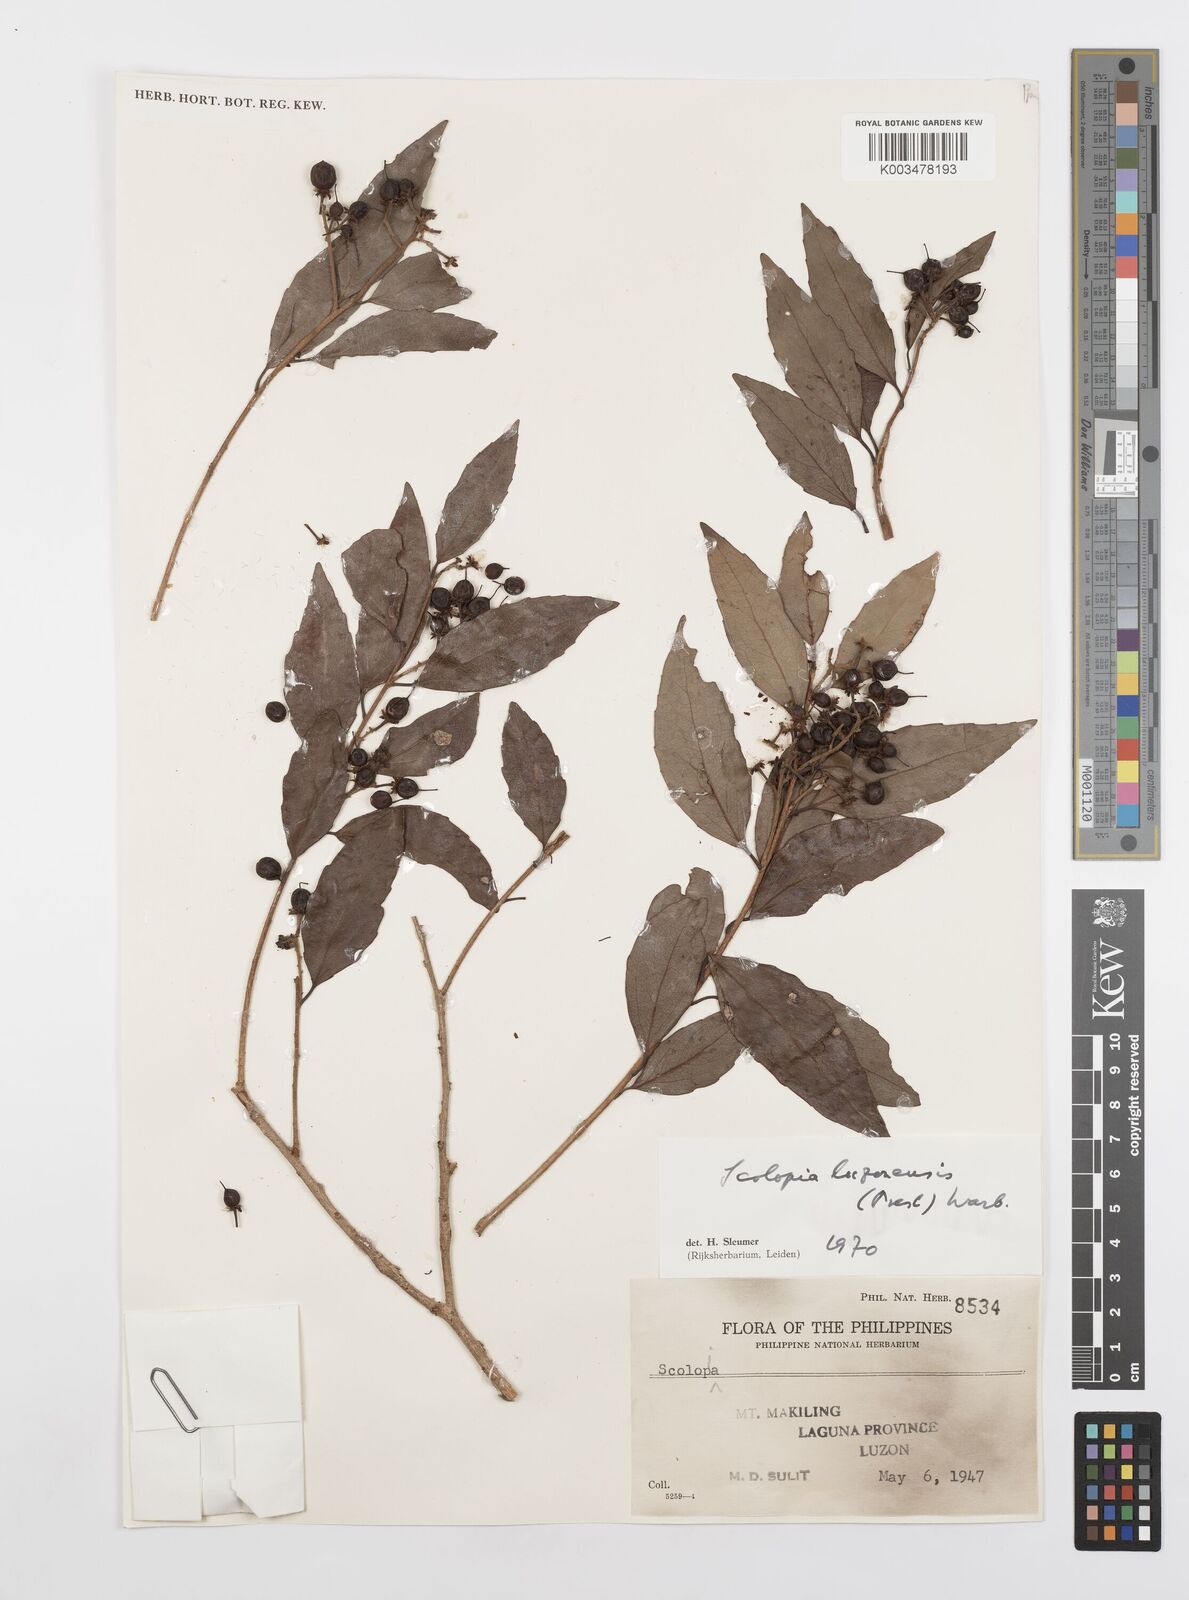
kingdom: Plantae
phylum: Tracheophyta
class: Magnoliopsida
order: Malpighiales
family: Salicaceae
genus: Scolopia
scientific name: Scolopia luzonensis
